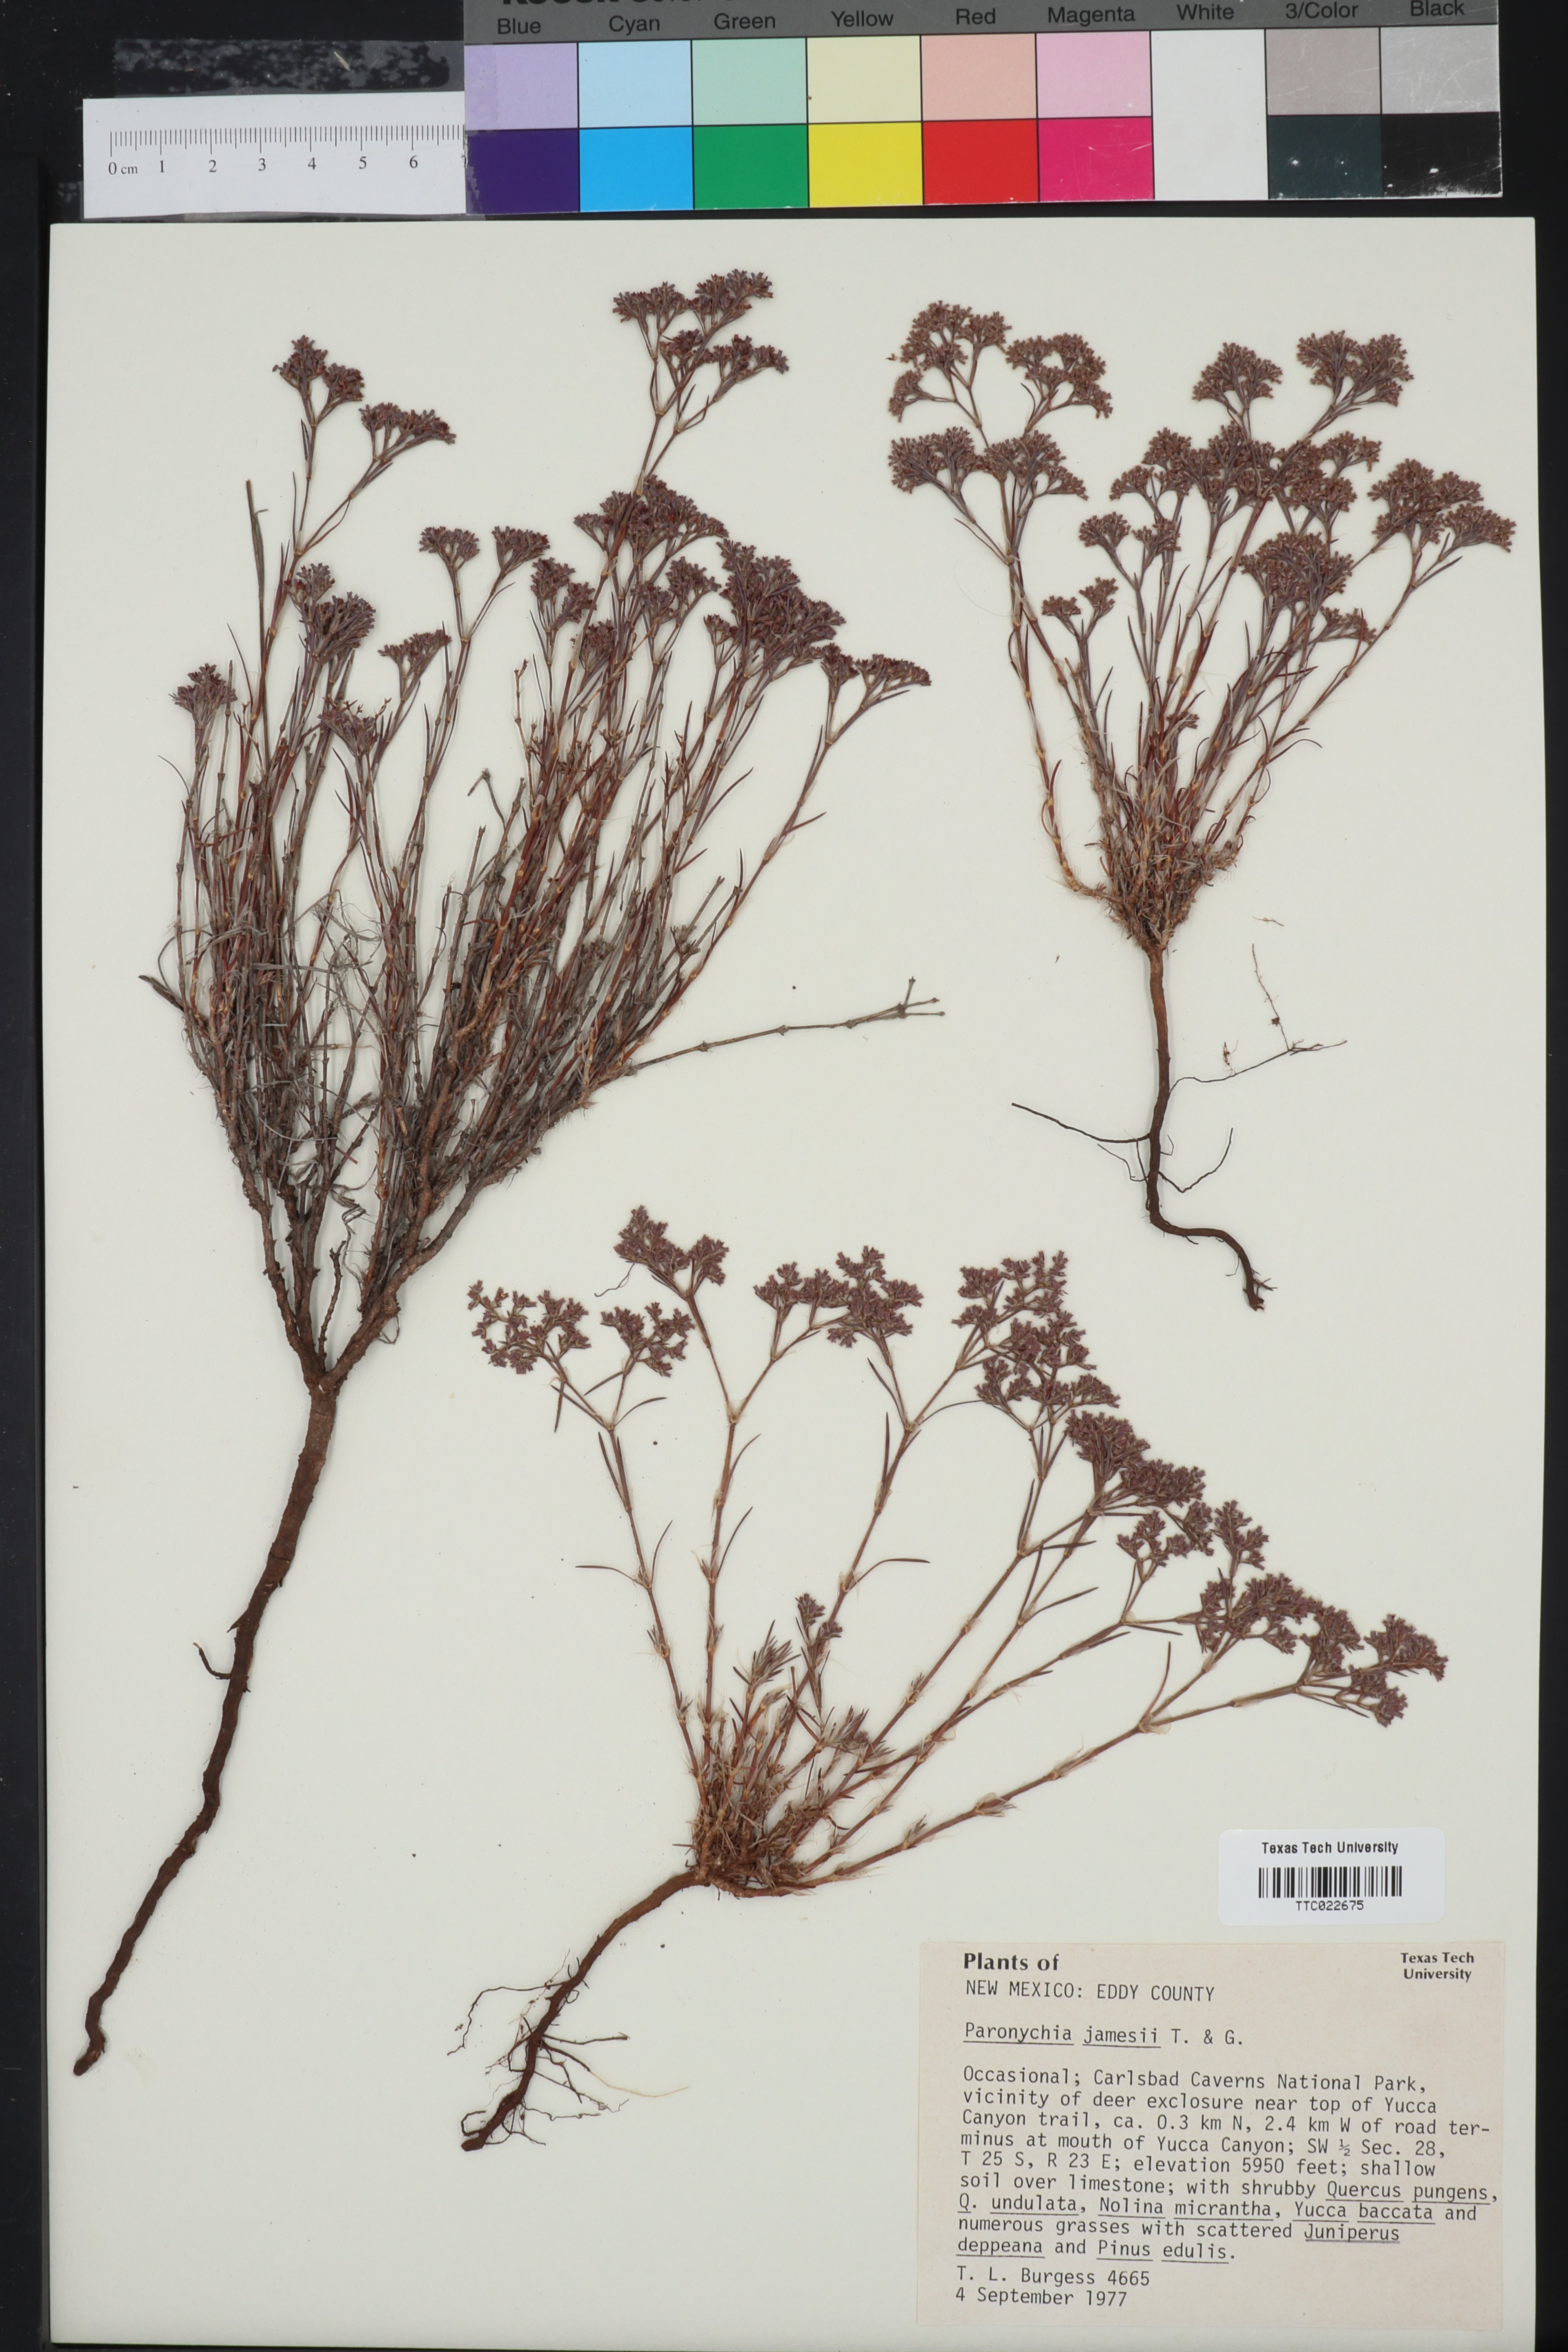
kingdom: Plantae
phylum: Tracheophyta
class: Magnoliopsida
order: Caryophyllales
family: Caryophyllaceae
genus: Paronychia
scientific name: Paronychia jamesii
